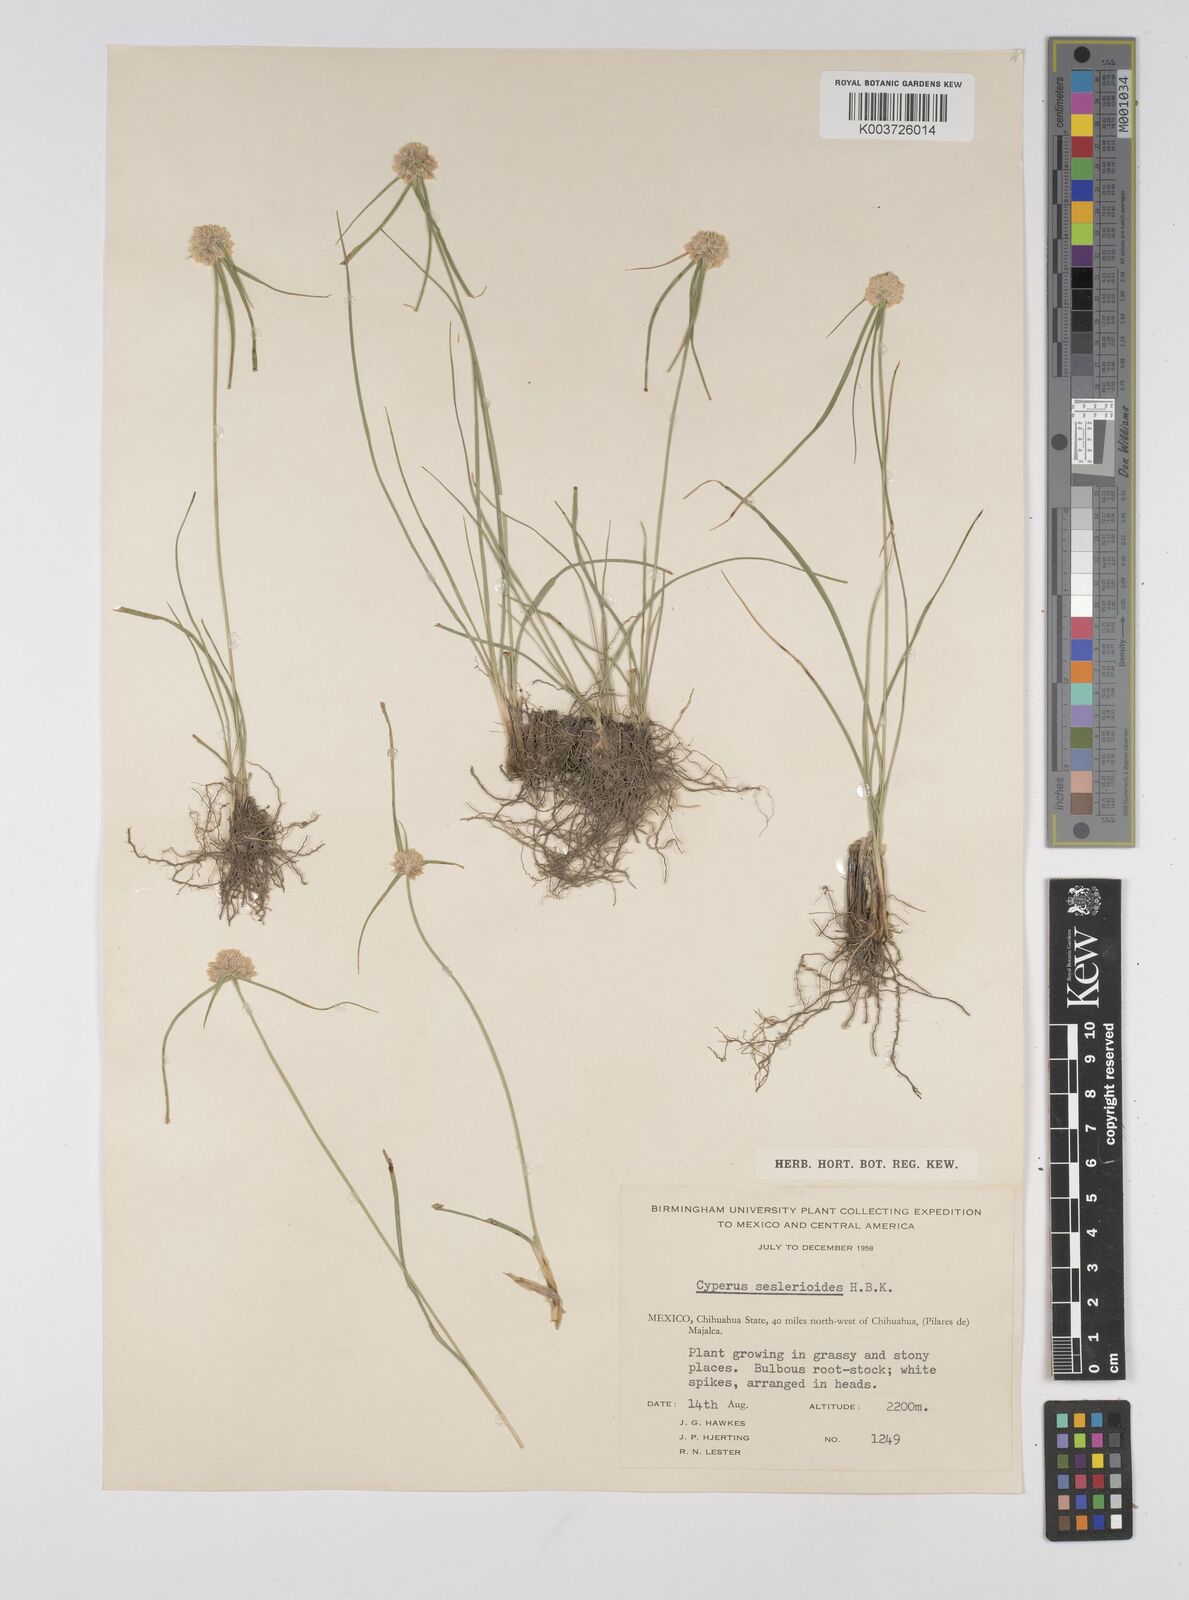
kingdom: Plantae
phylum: Tracheophyta
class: Liliopsida
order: Poales
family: Cyperaceae
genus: Cyperus
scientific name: Cyperus seslerioides
